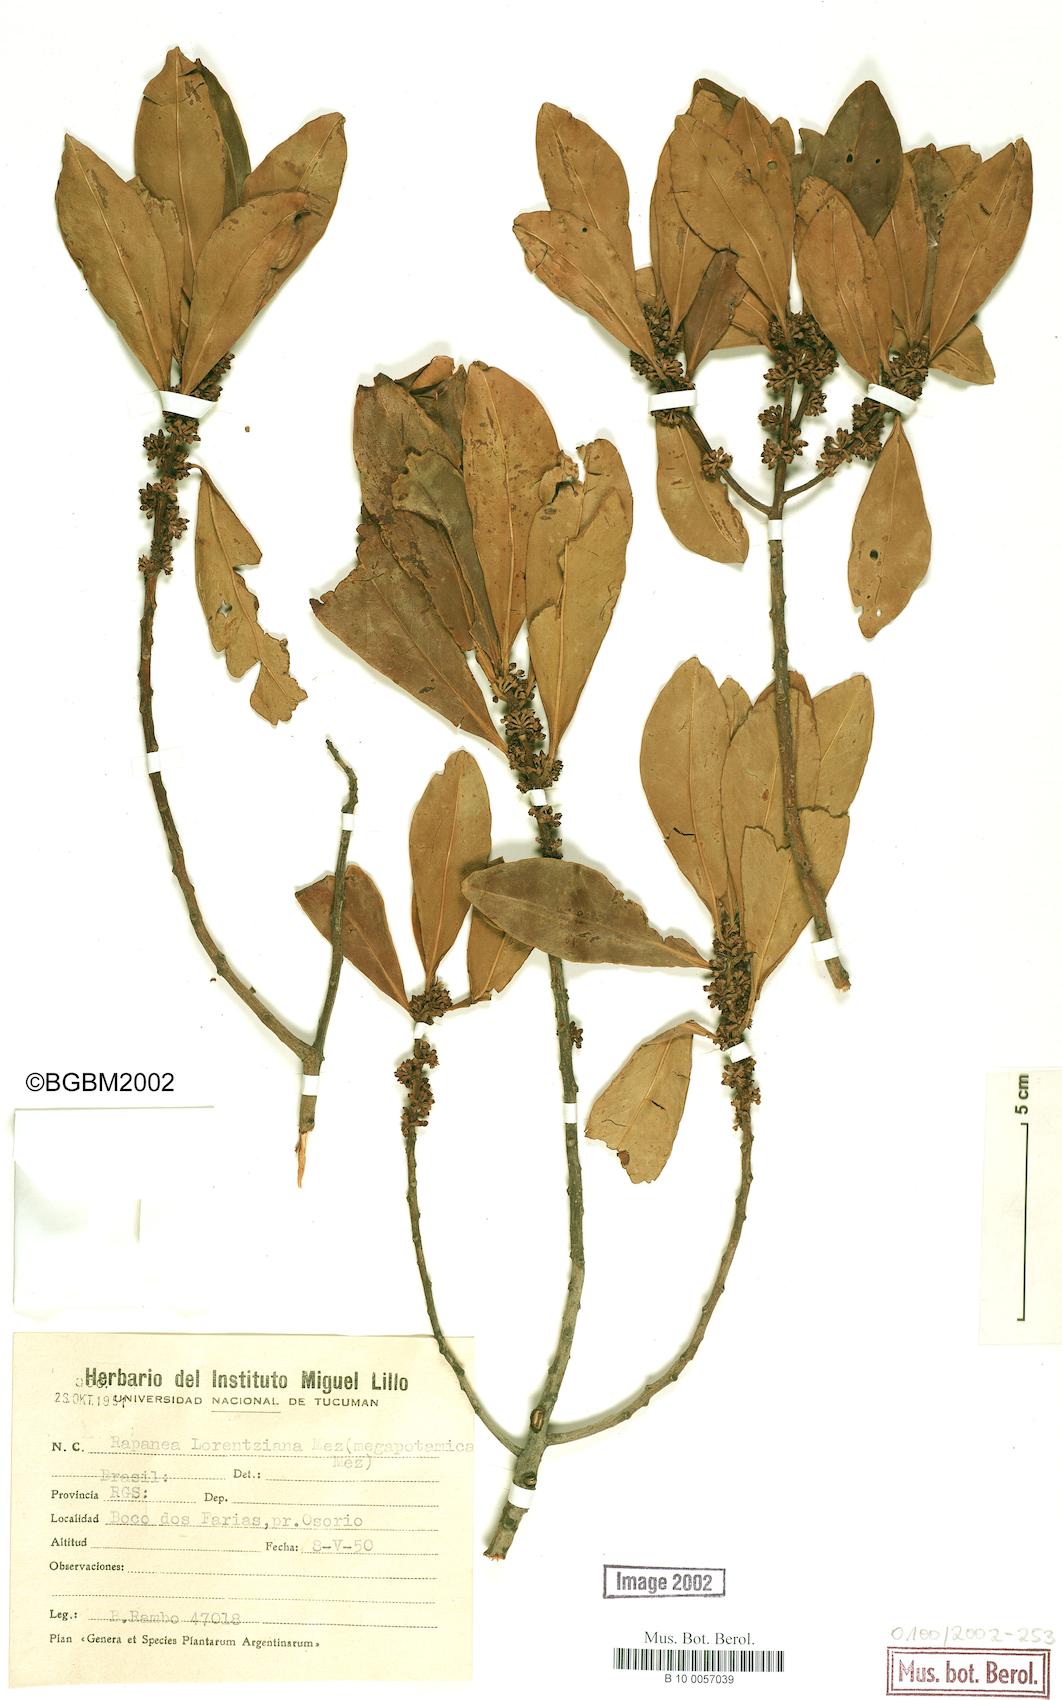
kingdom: Plantae
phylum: Tracheophyta
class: Magnoliopsida
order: Ericales
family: Primulaceae
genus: Myrsine
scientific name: Myrsine lorentziana
